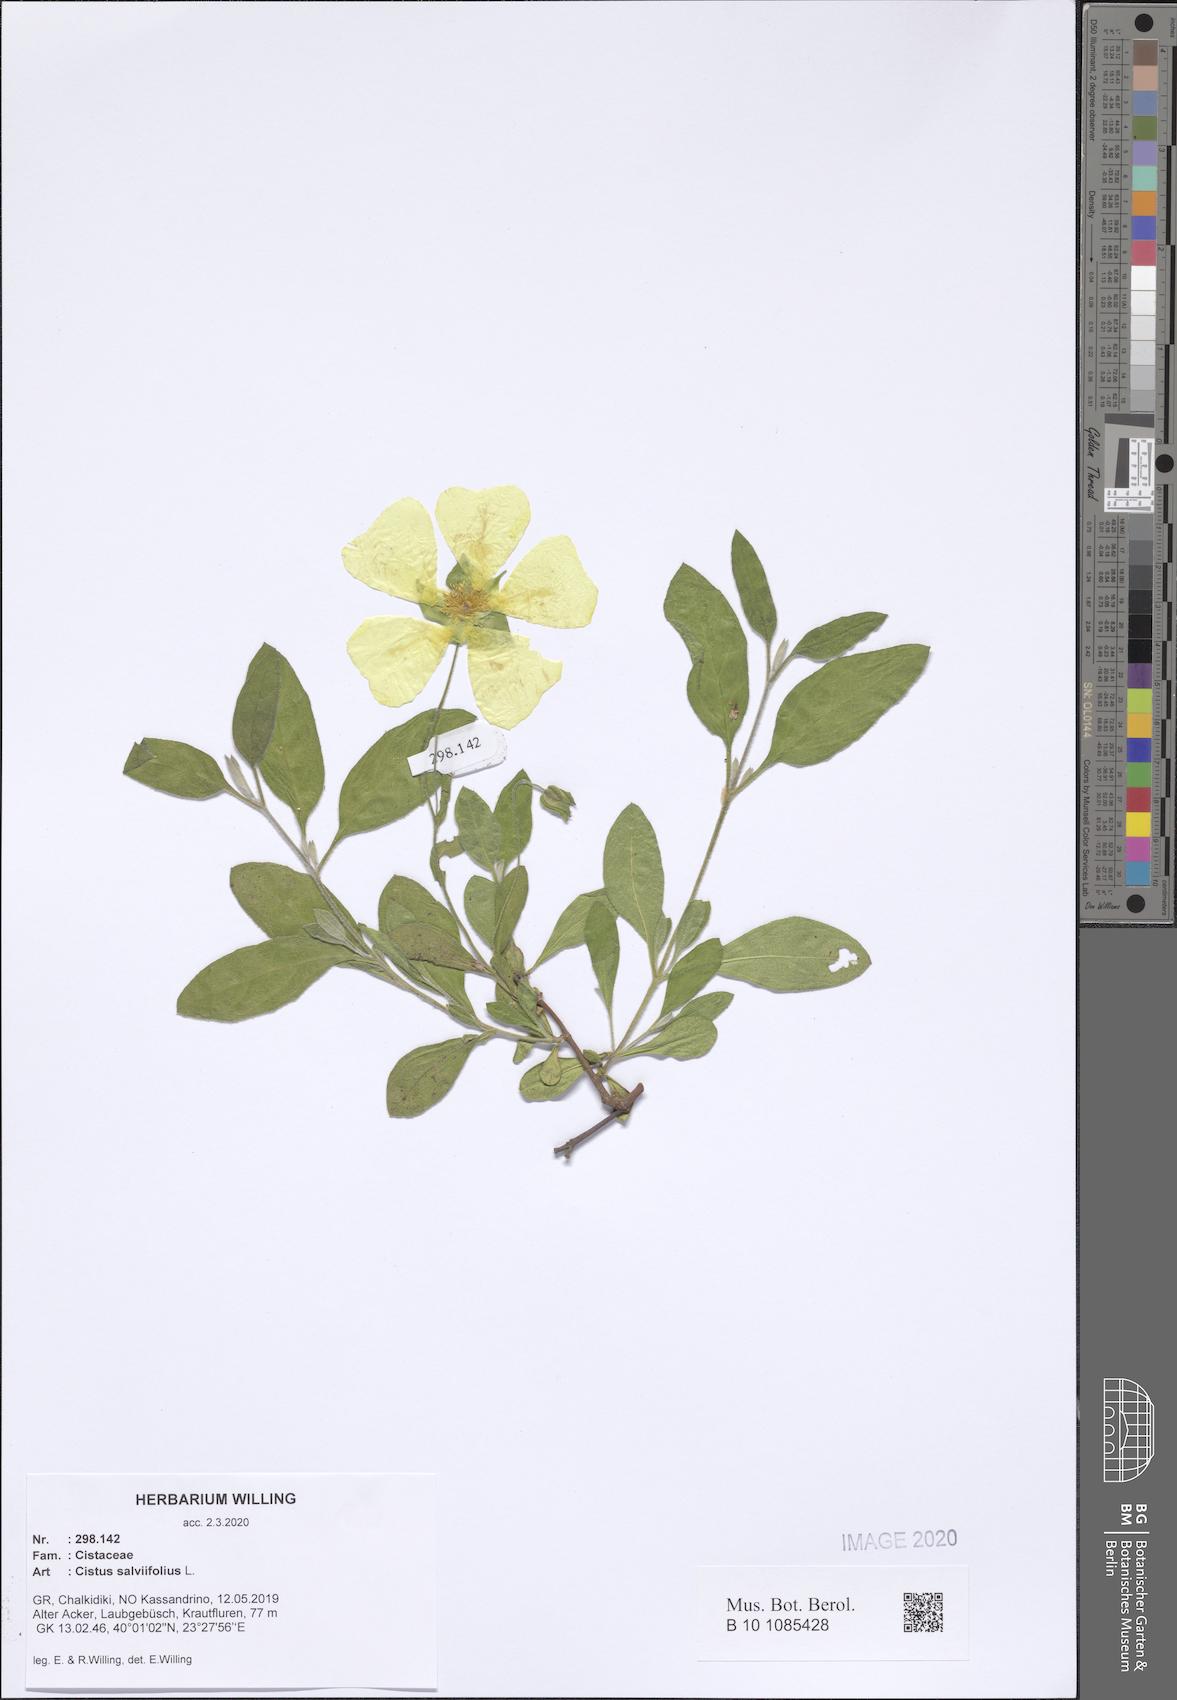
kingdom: Plantae
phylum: Tracheophyta
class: Magnoliopsida
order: Malvales
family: Cistaceae
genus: Cistus
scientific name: Cistus salviifolius
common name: Salvia cistus
